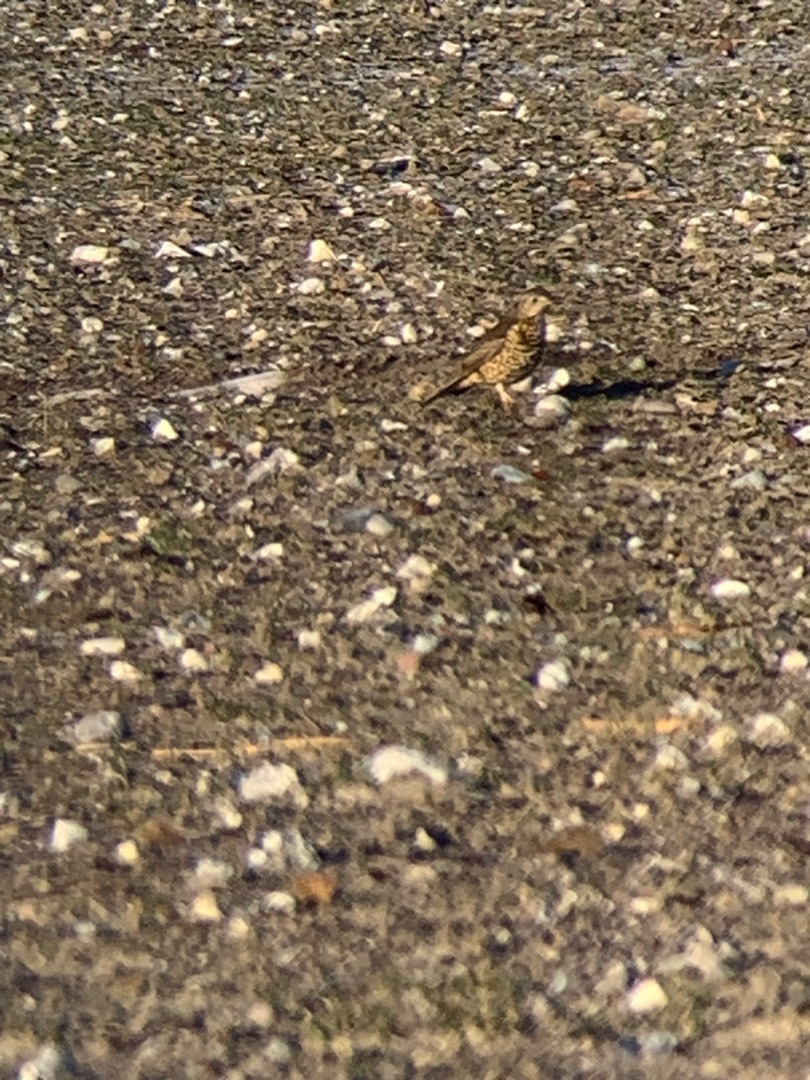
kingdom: Animalia
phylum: Chordata
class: Aves
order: Passeriformes
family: Turdidae
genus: Turdus
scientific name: Turdus viscivorus
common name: Misteldrossel
